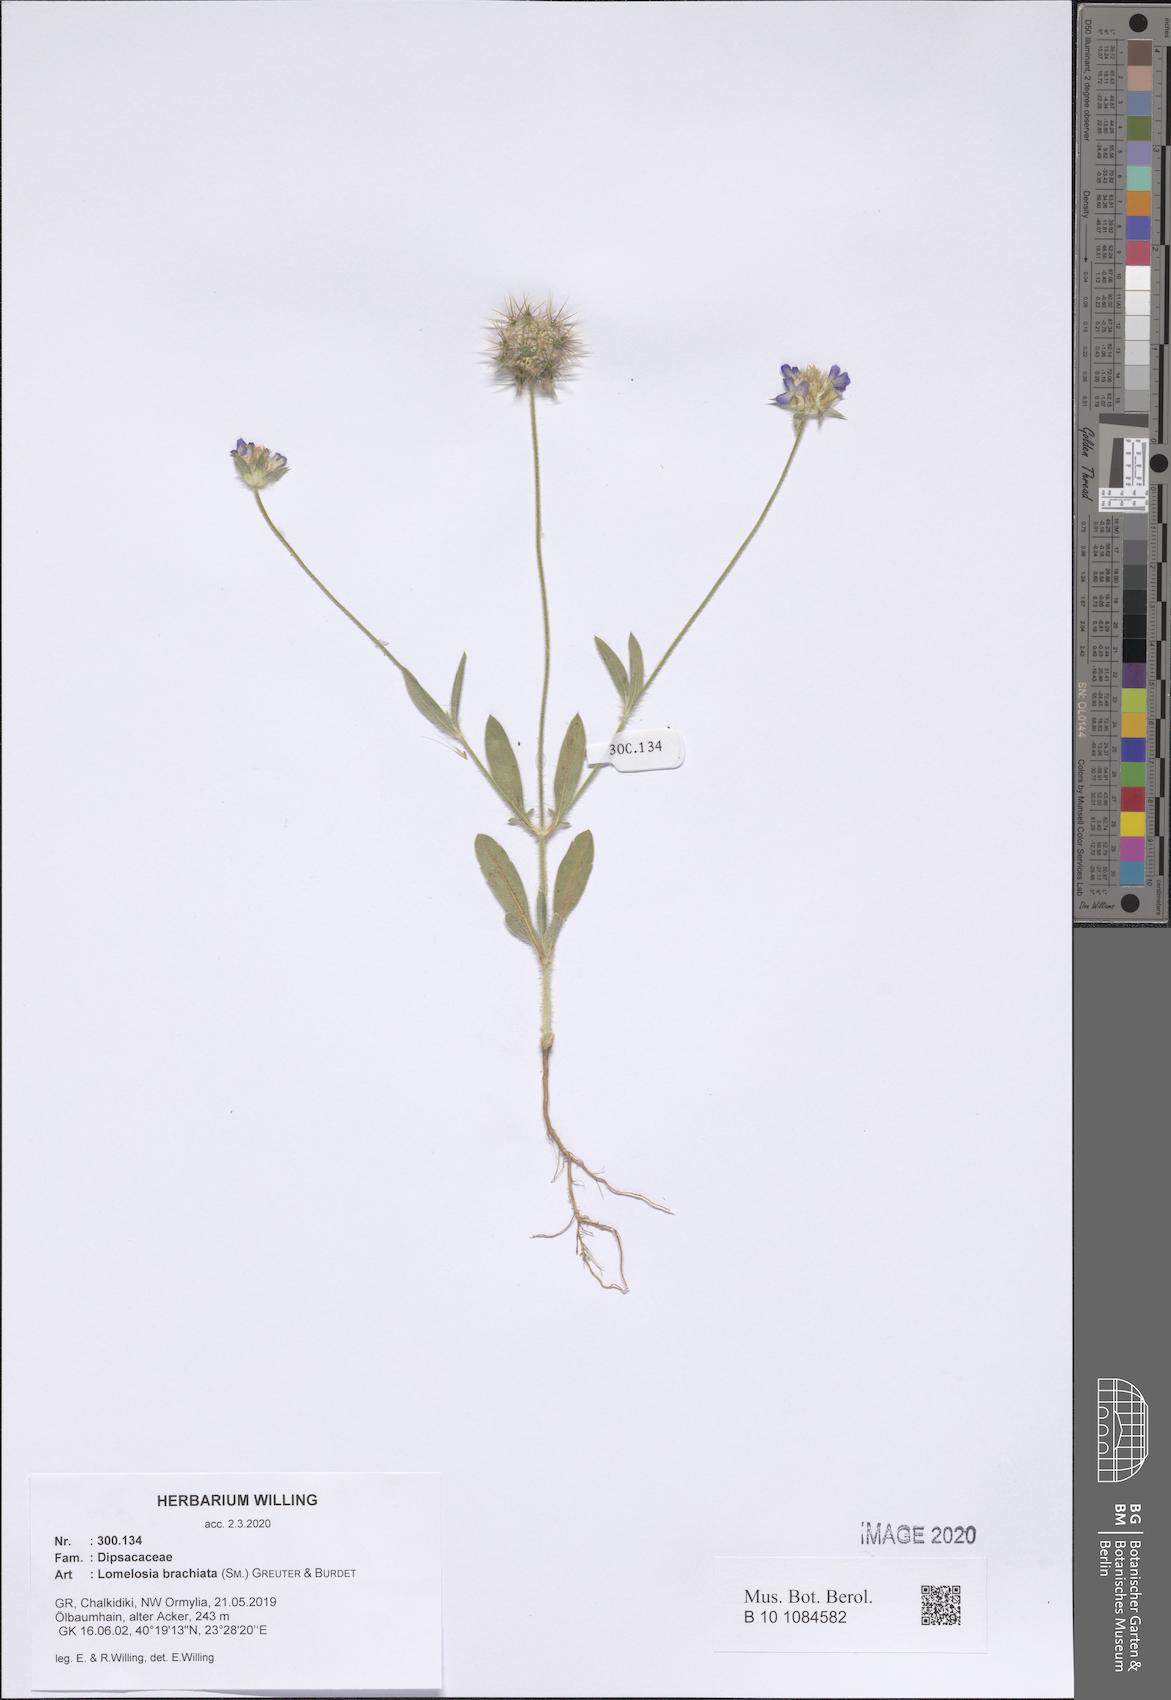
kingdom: Plantae
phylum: Tracheophyta
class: Magnoliopsida
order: Dipsacales
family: Caprifoliaceae
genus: Lomelosia
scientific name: Lomelosia brachiata
